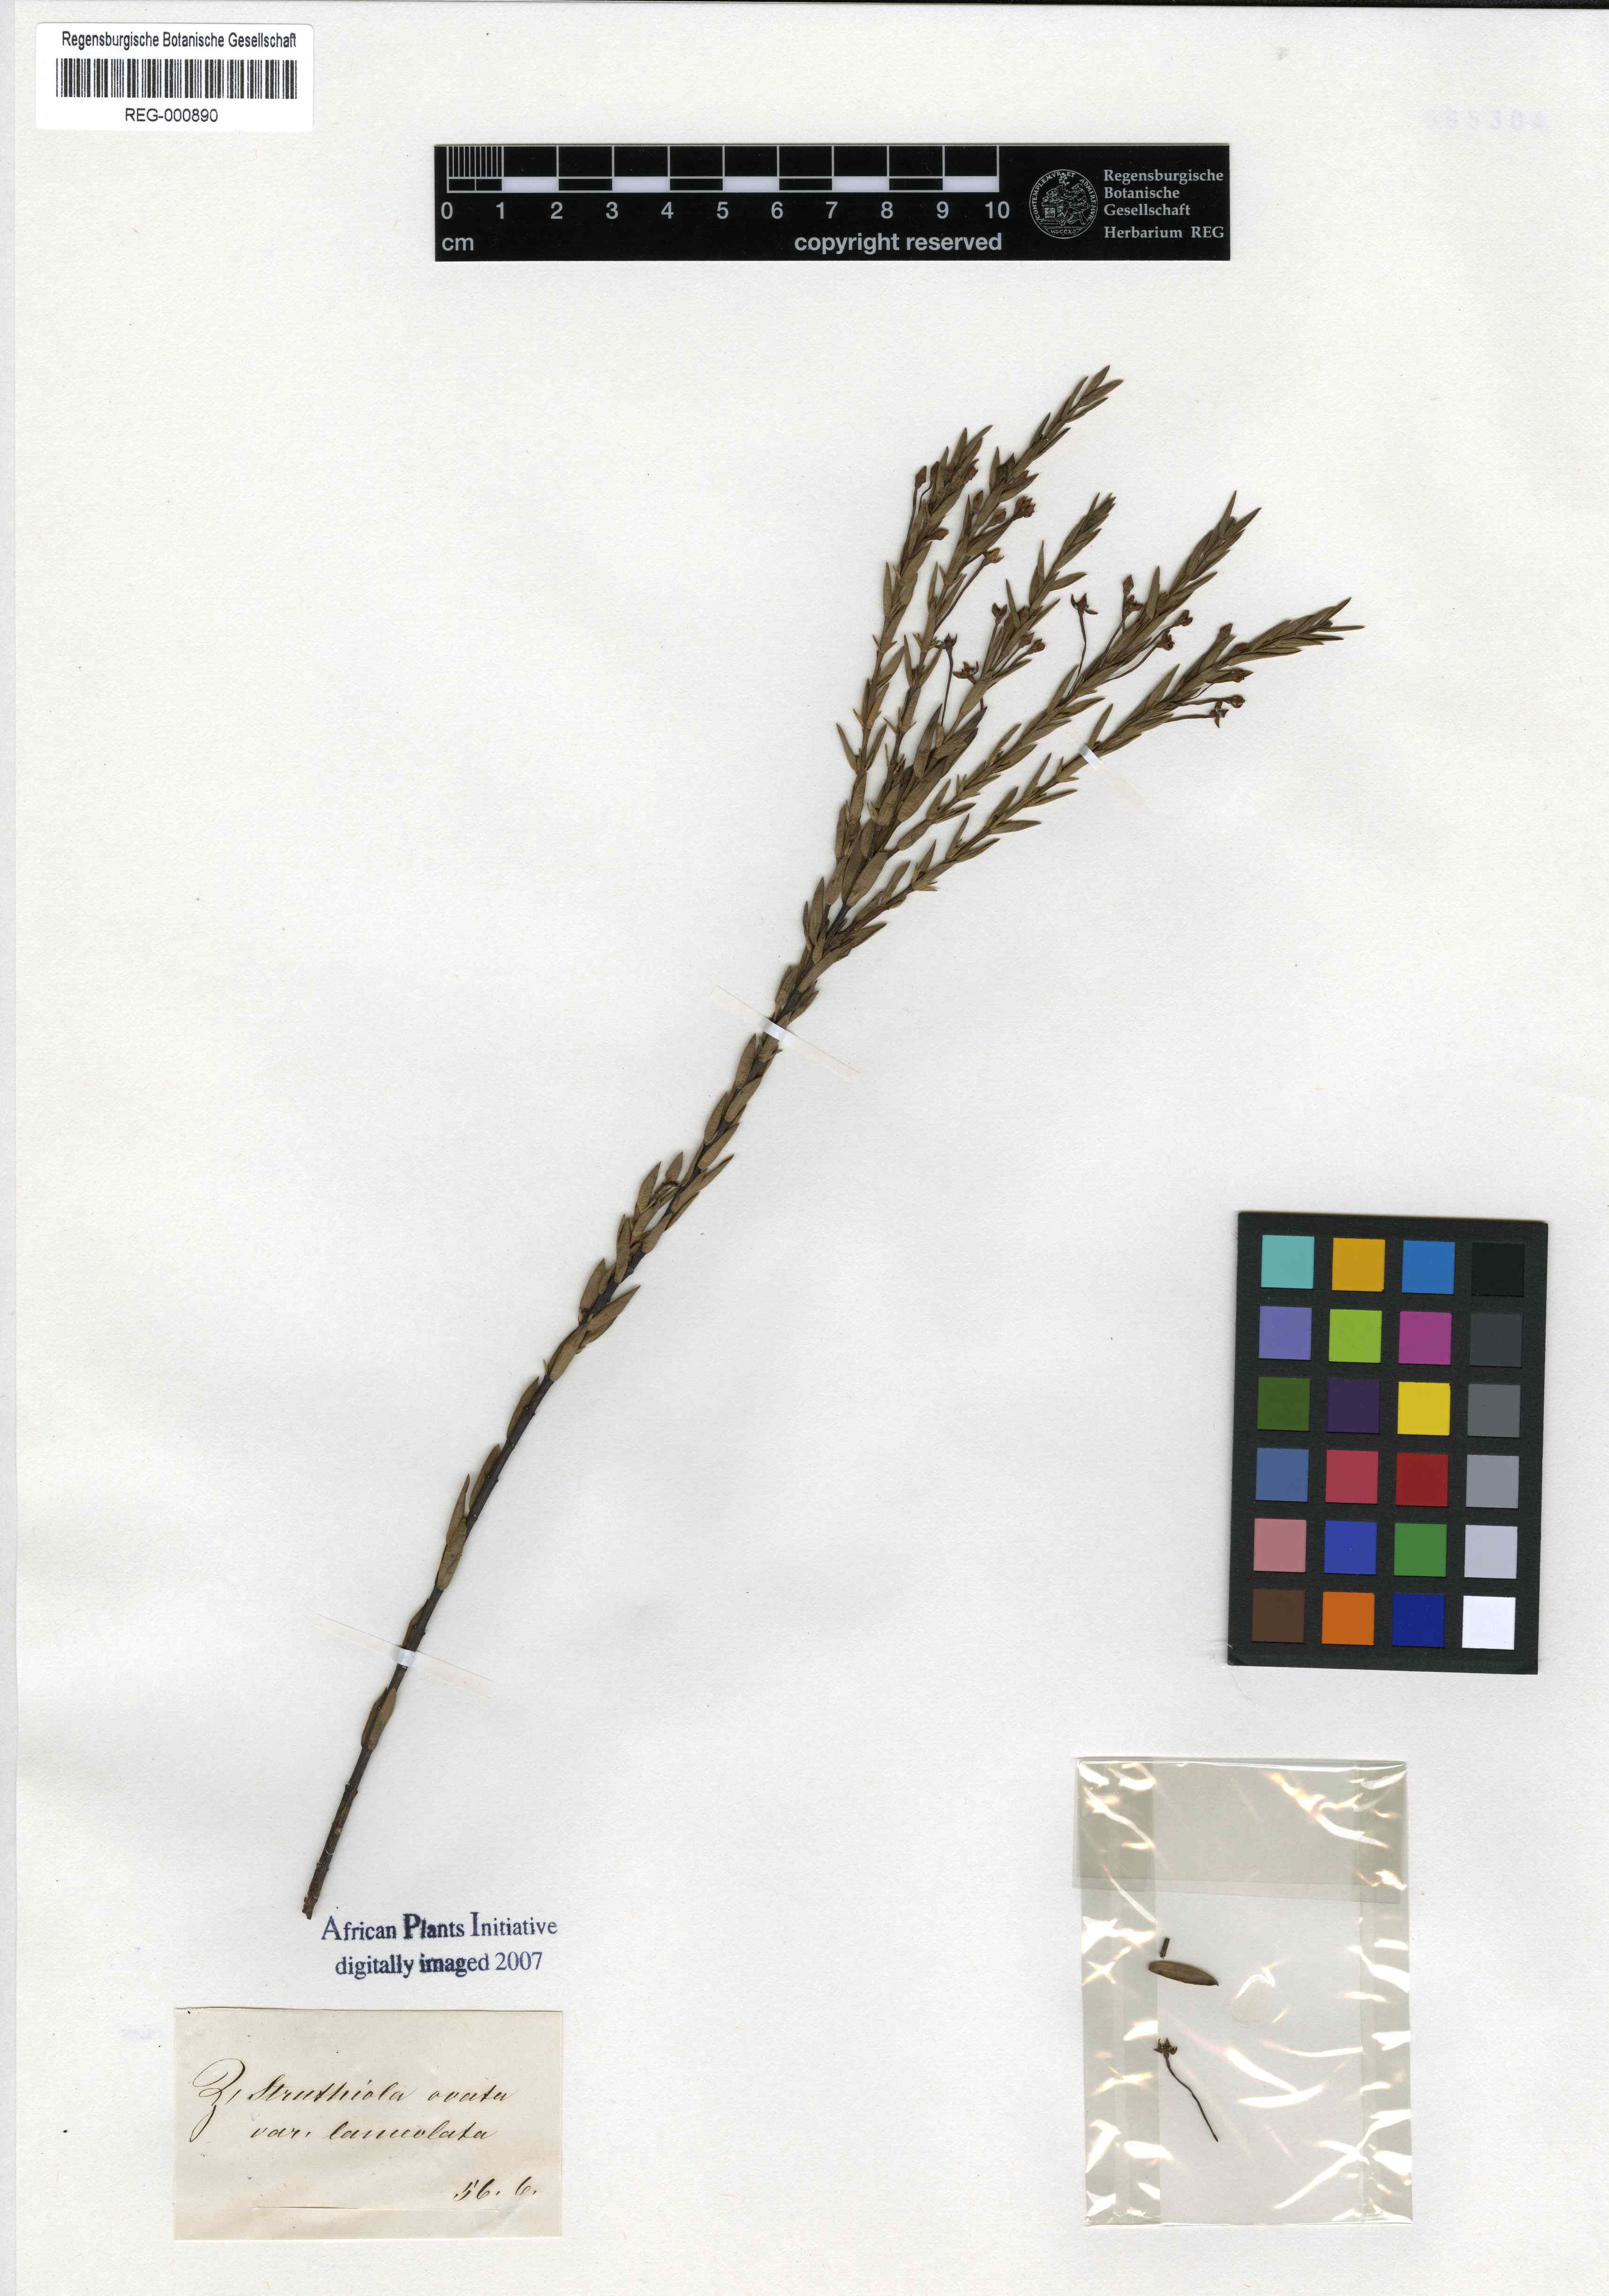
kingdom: Plantae
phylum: Tracheophyta
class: Magnoliopsida
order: Malvales
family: Thymelaeaceae
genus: Struthiola
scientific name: Struthiola myrsinites
